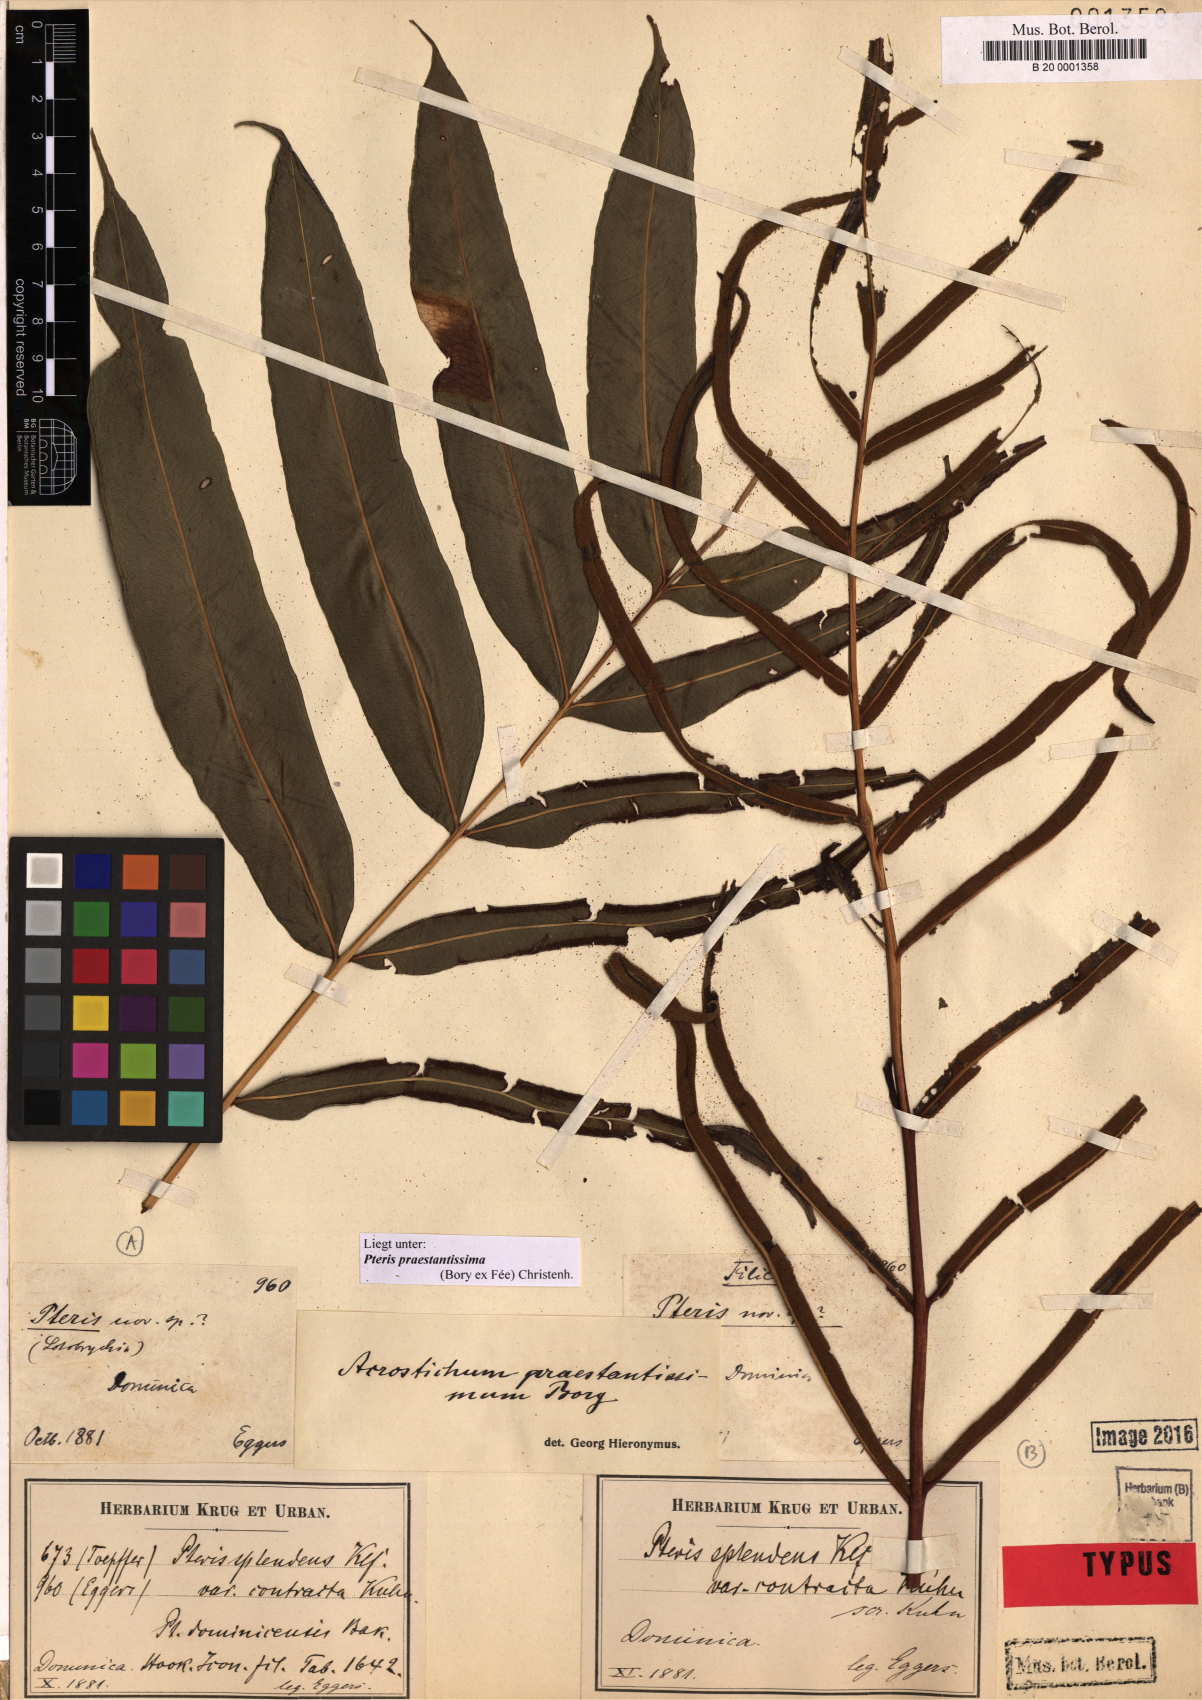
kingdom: Plantae
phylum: Tracheophyta
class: Polypodiopsida
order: Polypodiales
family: Pteridaceae
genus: Pteris
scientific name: Pteris praestantissima
